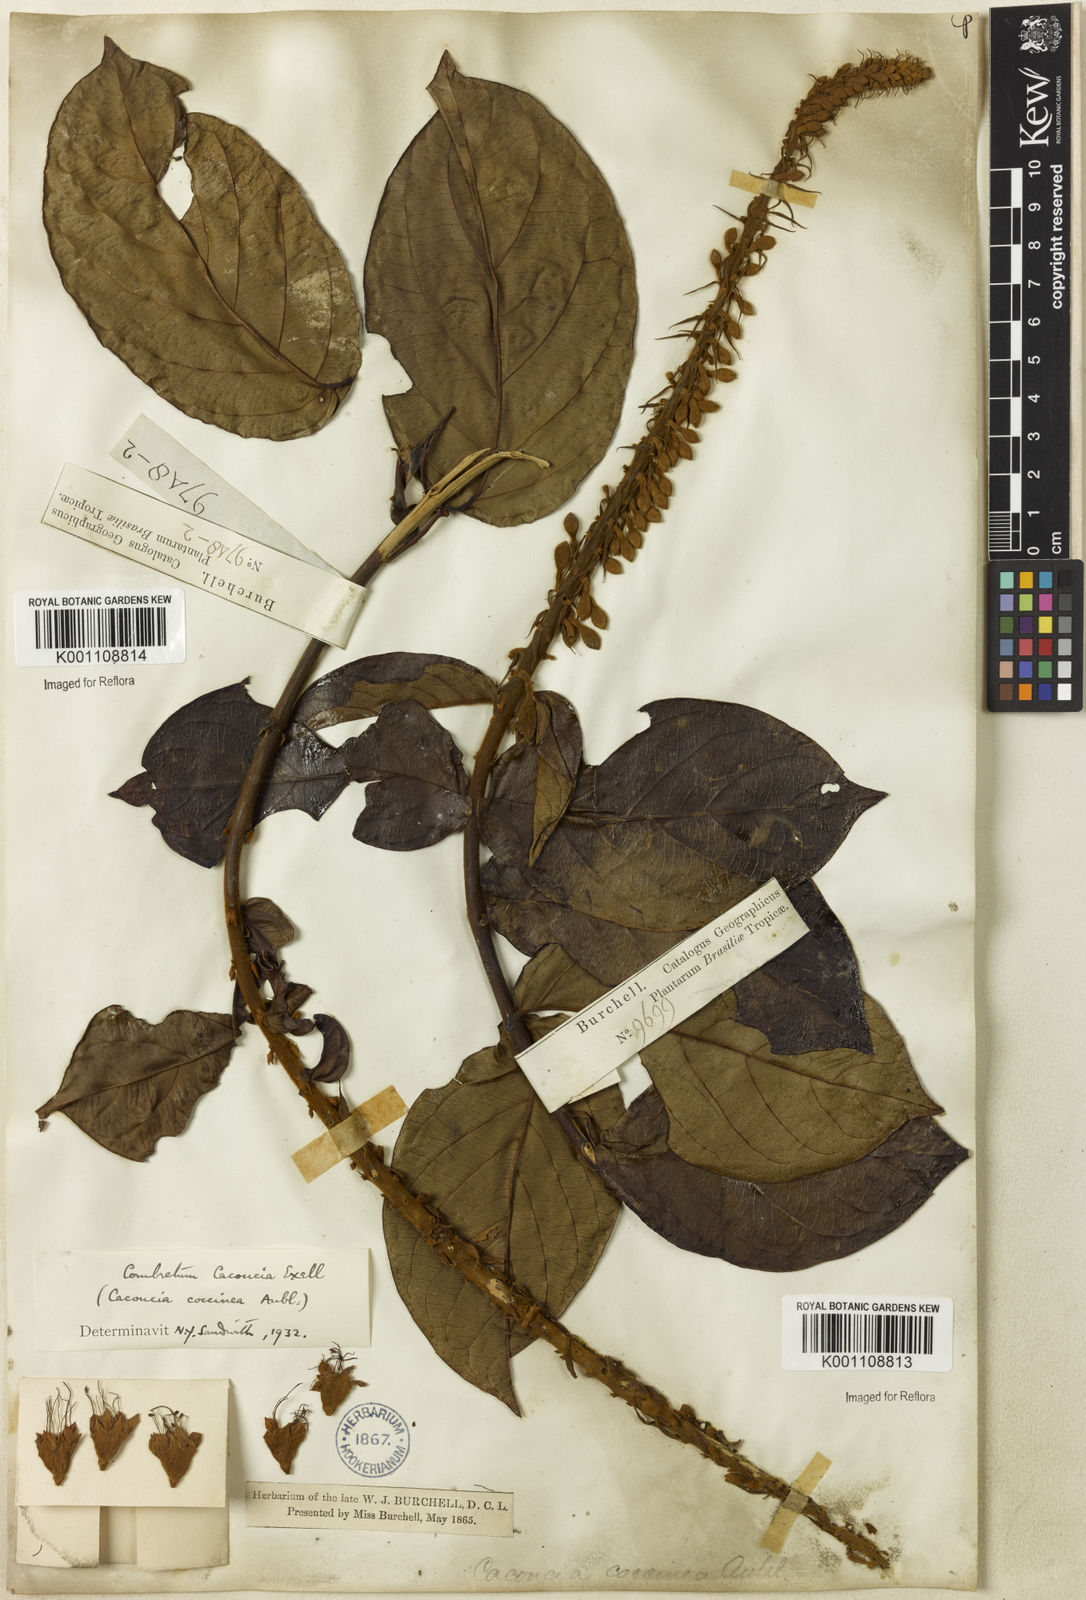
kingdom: Plantae
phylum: Tracheophyta
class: Magnoliopsida
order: Myrtales
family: Combretaceae
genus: Combretum
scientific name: Combretum
